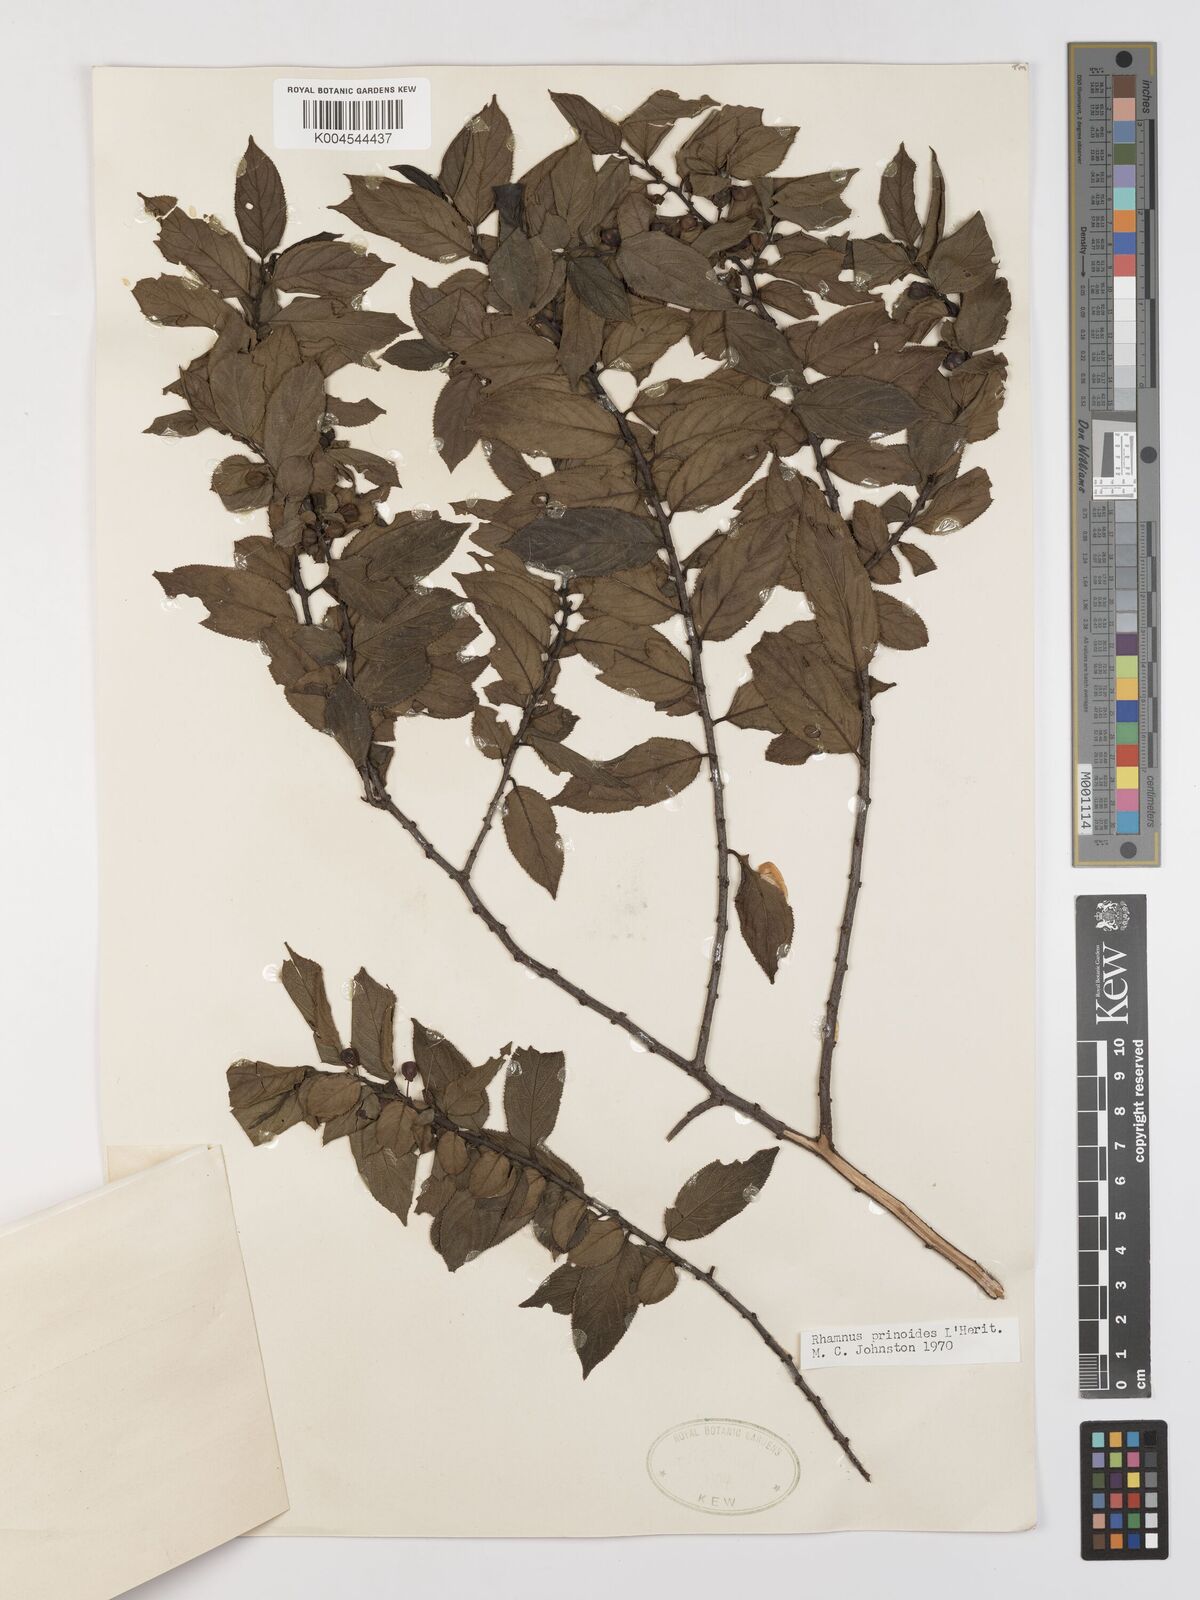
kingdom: Plantae
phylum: Tracheophyta
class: Magnoliopsida
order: Rosales
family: Rhamnaceae
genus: Rhamnus
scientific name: Rhamnus prinoides
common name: Dogwood
